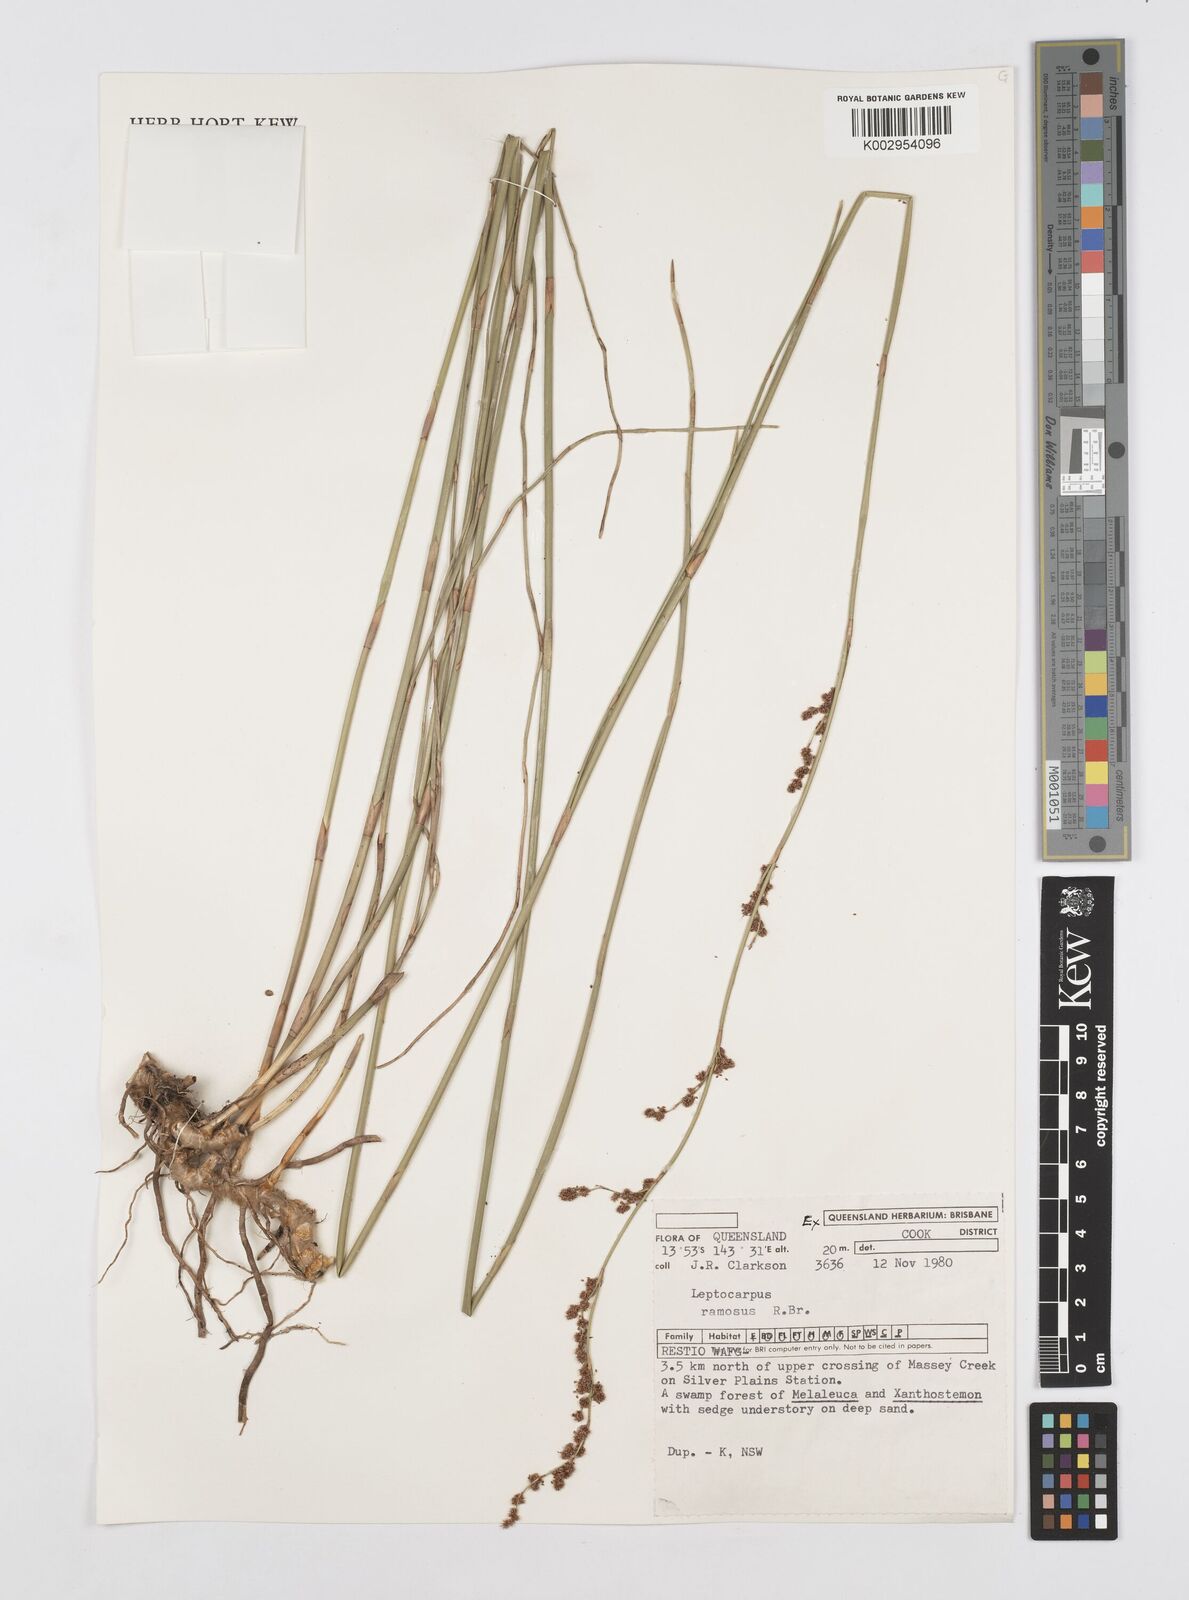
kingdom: Plantae
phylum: Tracheophyta
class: Liliopsida
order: Poales
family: Restionaceae
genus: Dapsilanthus
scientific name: Dapsilanthus ramosus
